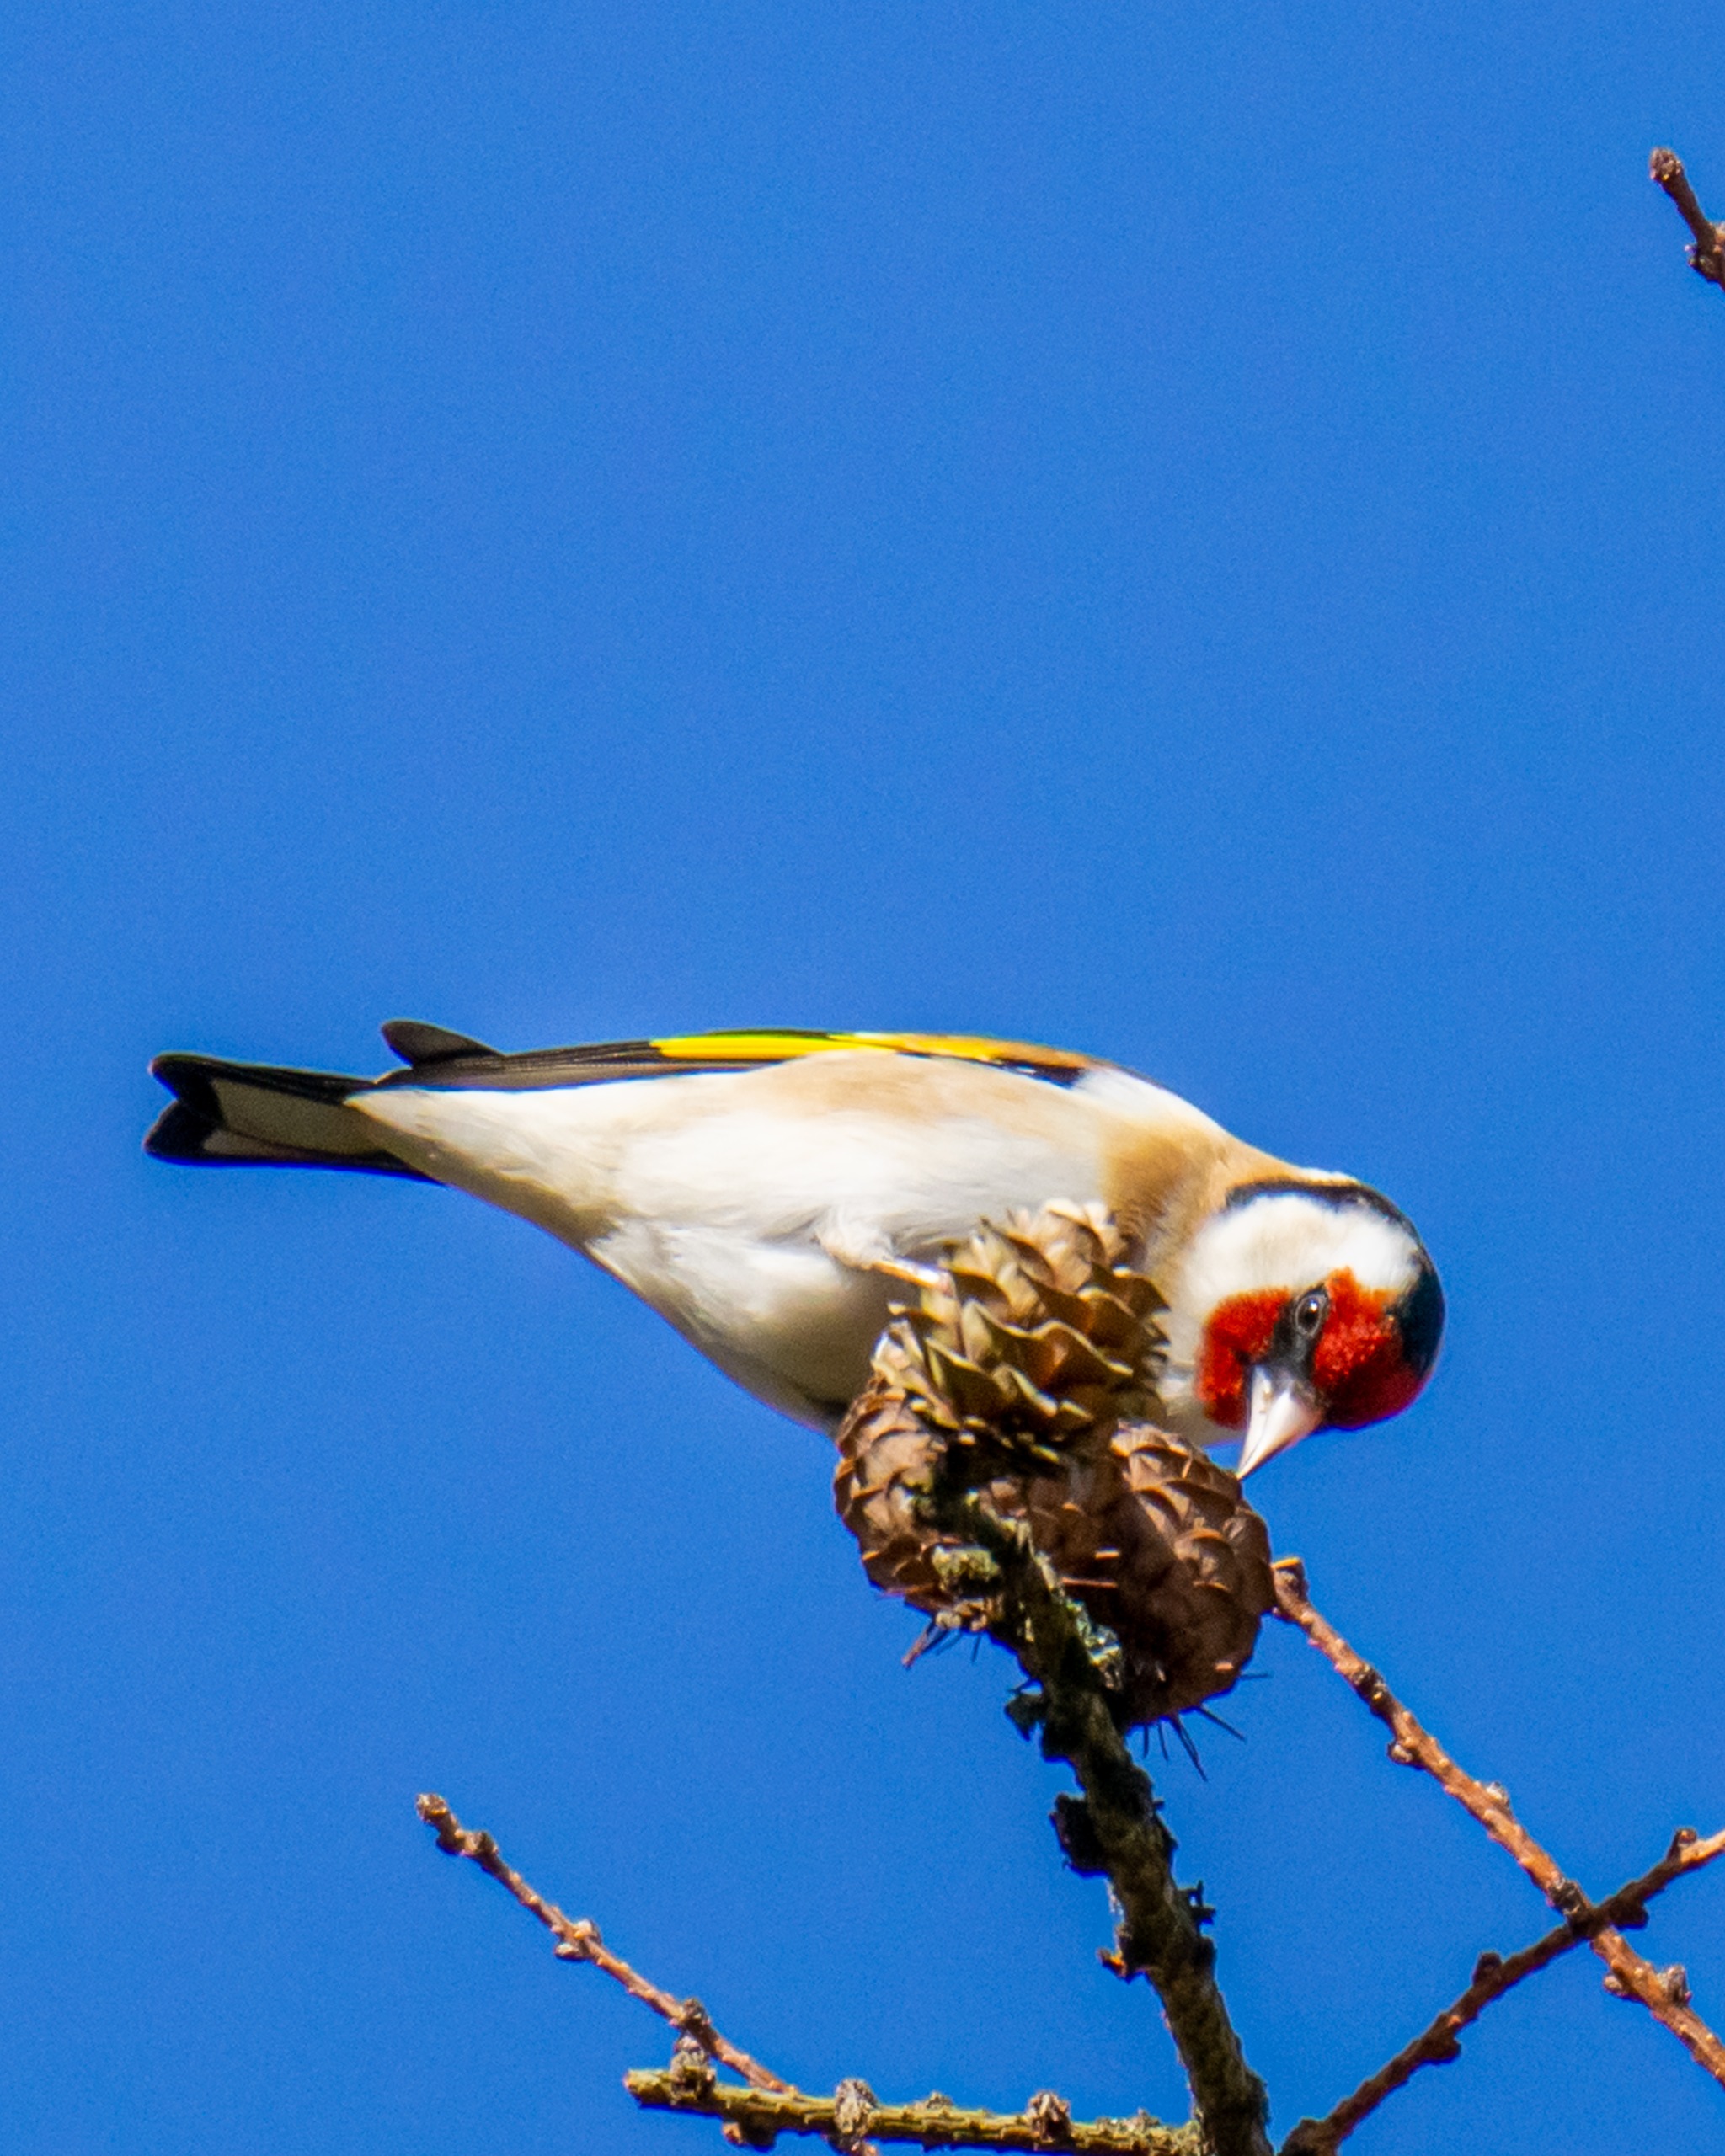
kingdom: Animalia
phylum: Chordata
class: Aves
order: Passeriformes
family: Fringillidae
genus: Carduelis
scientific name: Carduelis carduelis
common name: Stillits
